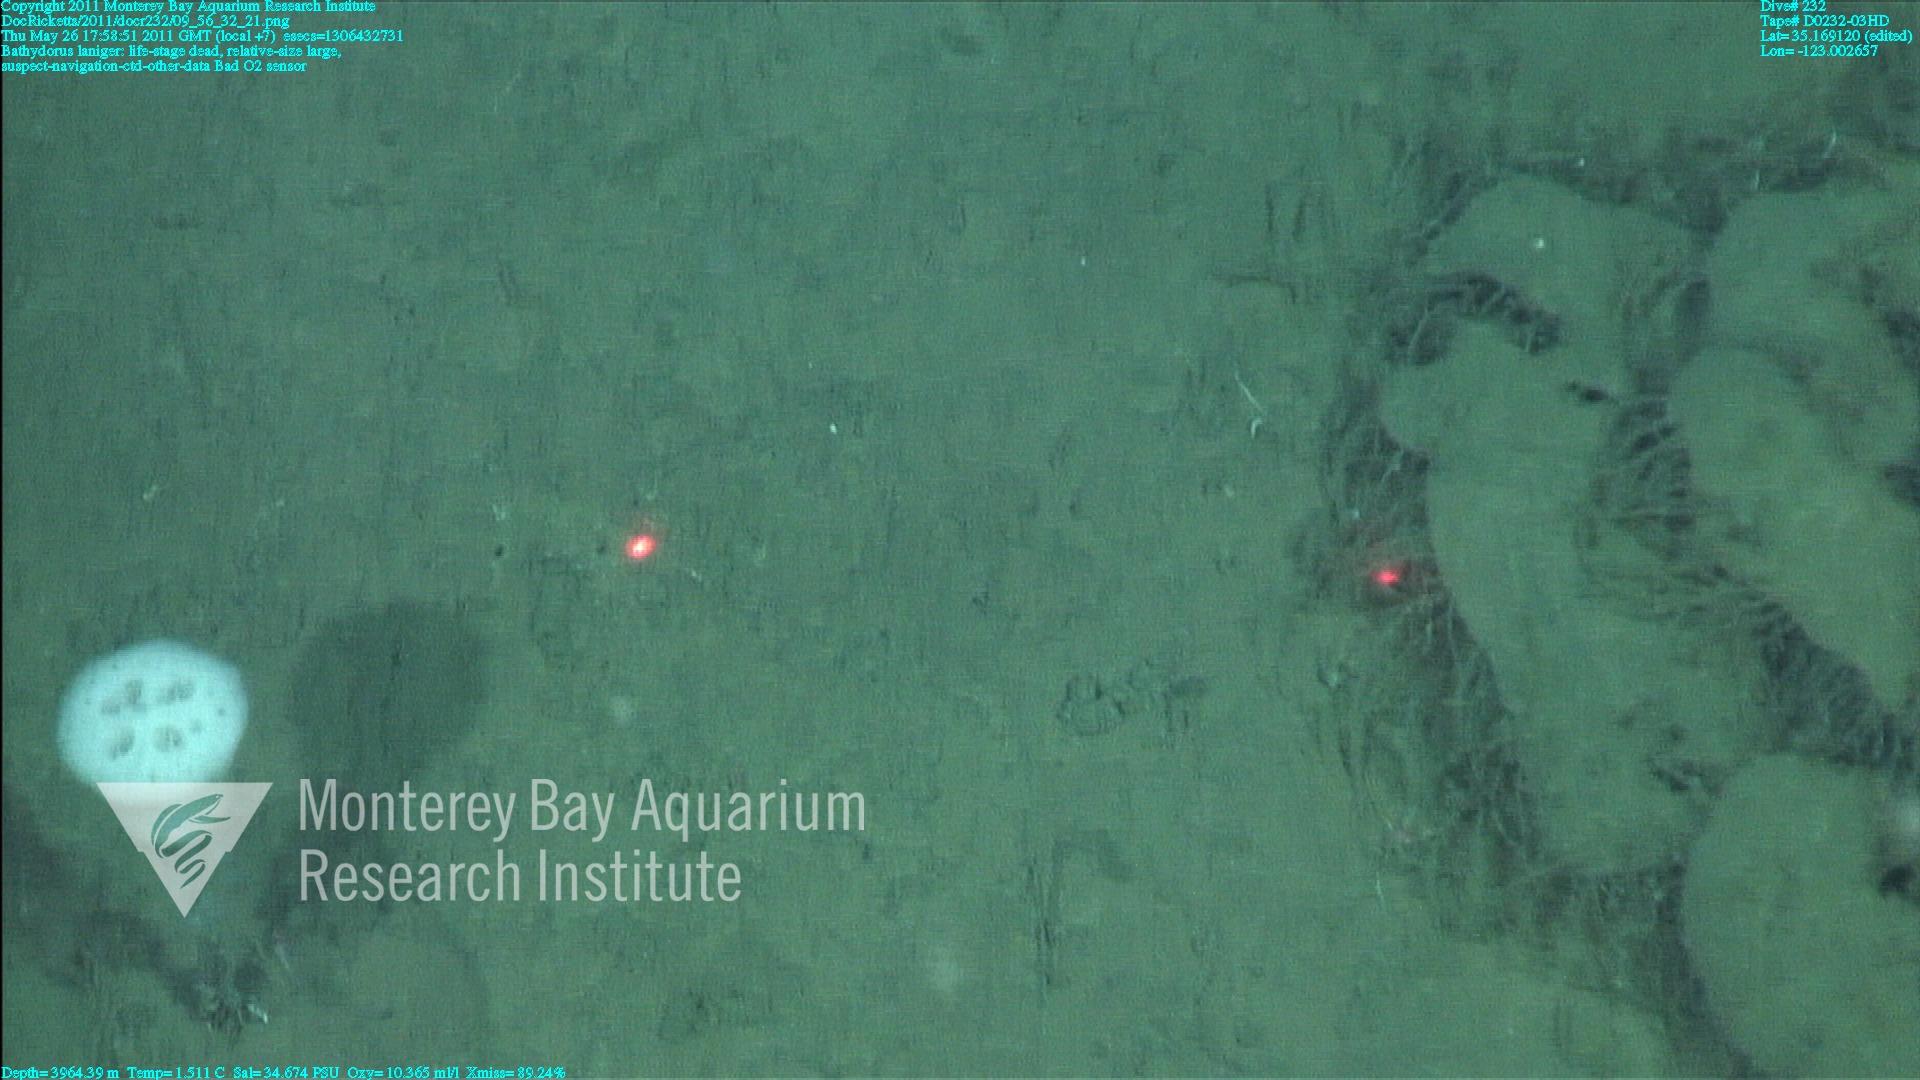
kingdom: Animalia
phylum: Porifera
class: Hexactinellida
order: Lyssacinosida
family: Rossellidae
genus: Bathydorus
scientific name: Bathydorus laniger
